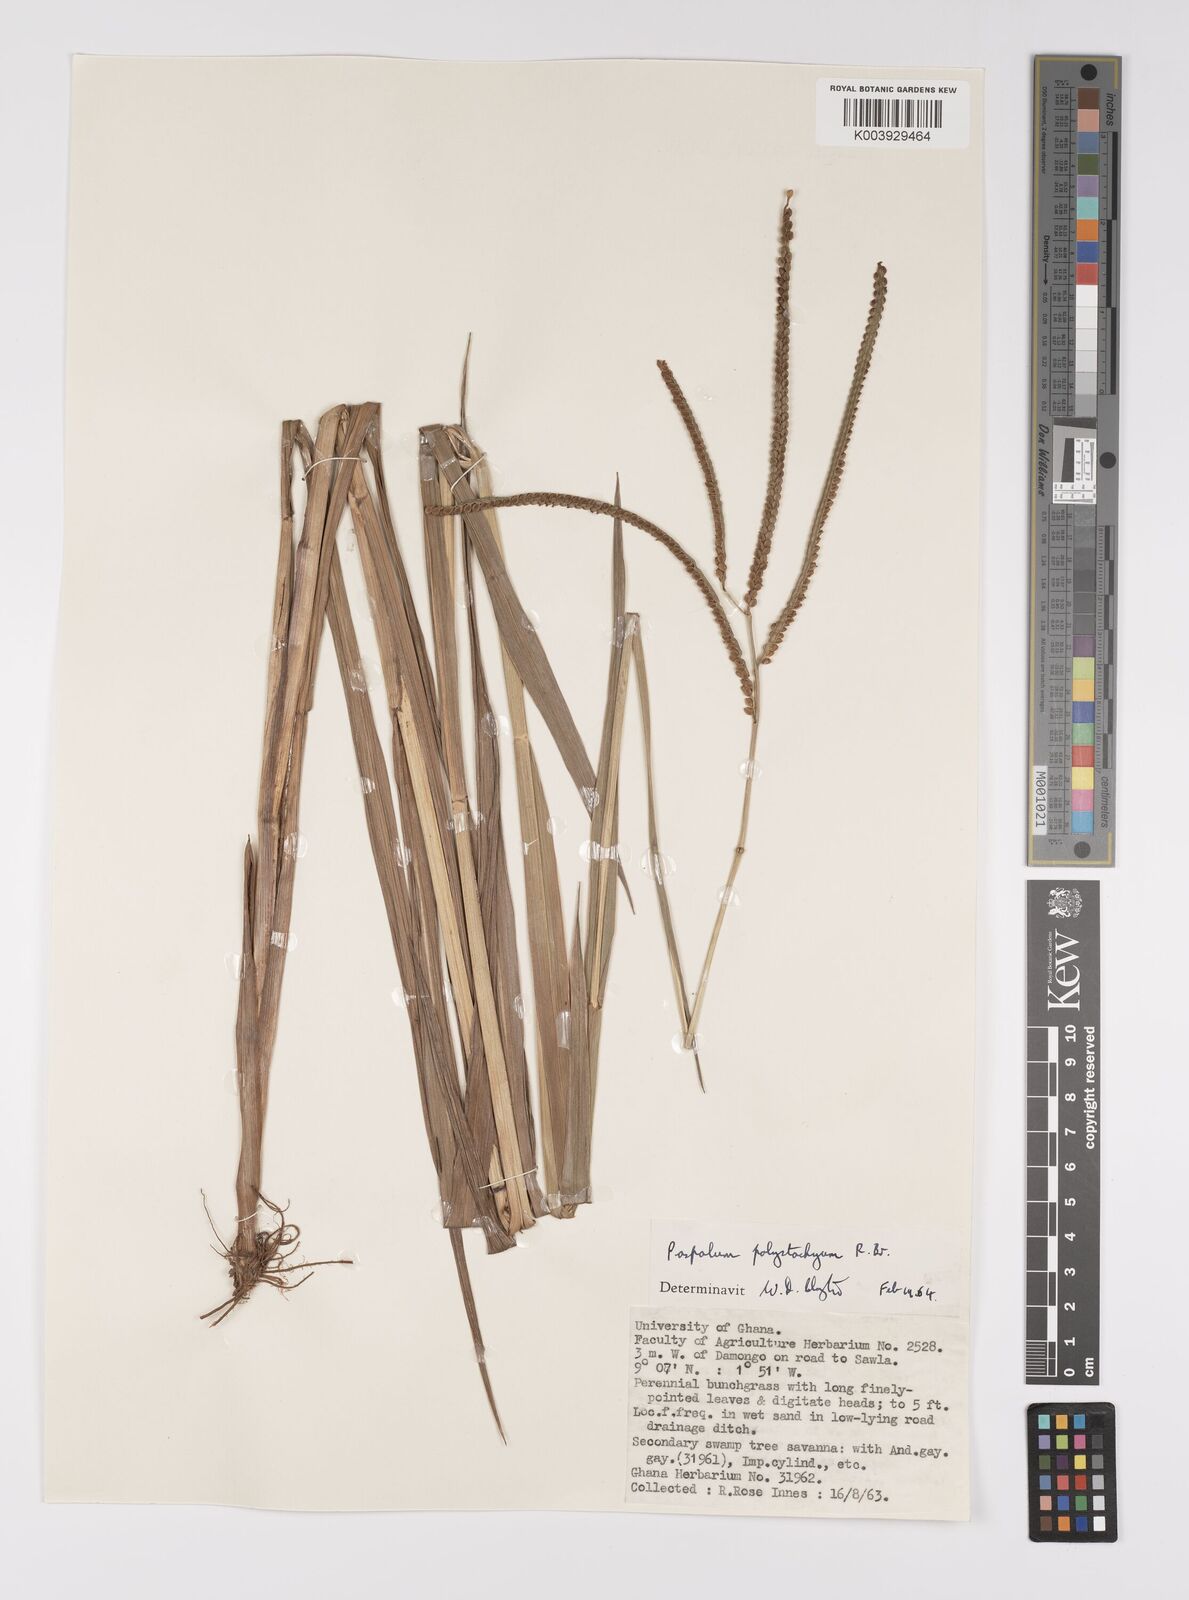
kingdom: Plantae
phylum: Tracheophyta
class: Liliopsida
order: Poales
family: Poaceae
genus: Paspalum
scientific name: Paspalum scrobiculatum
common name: Kodo millet
